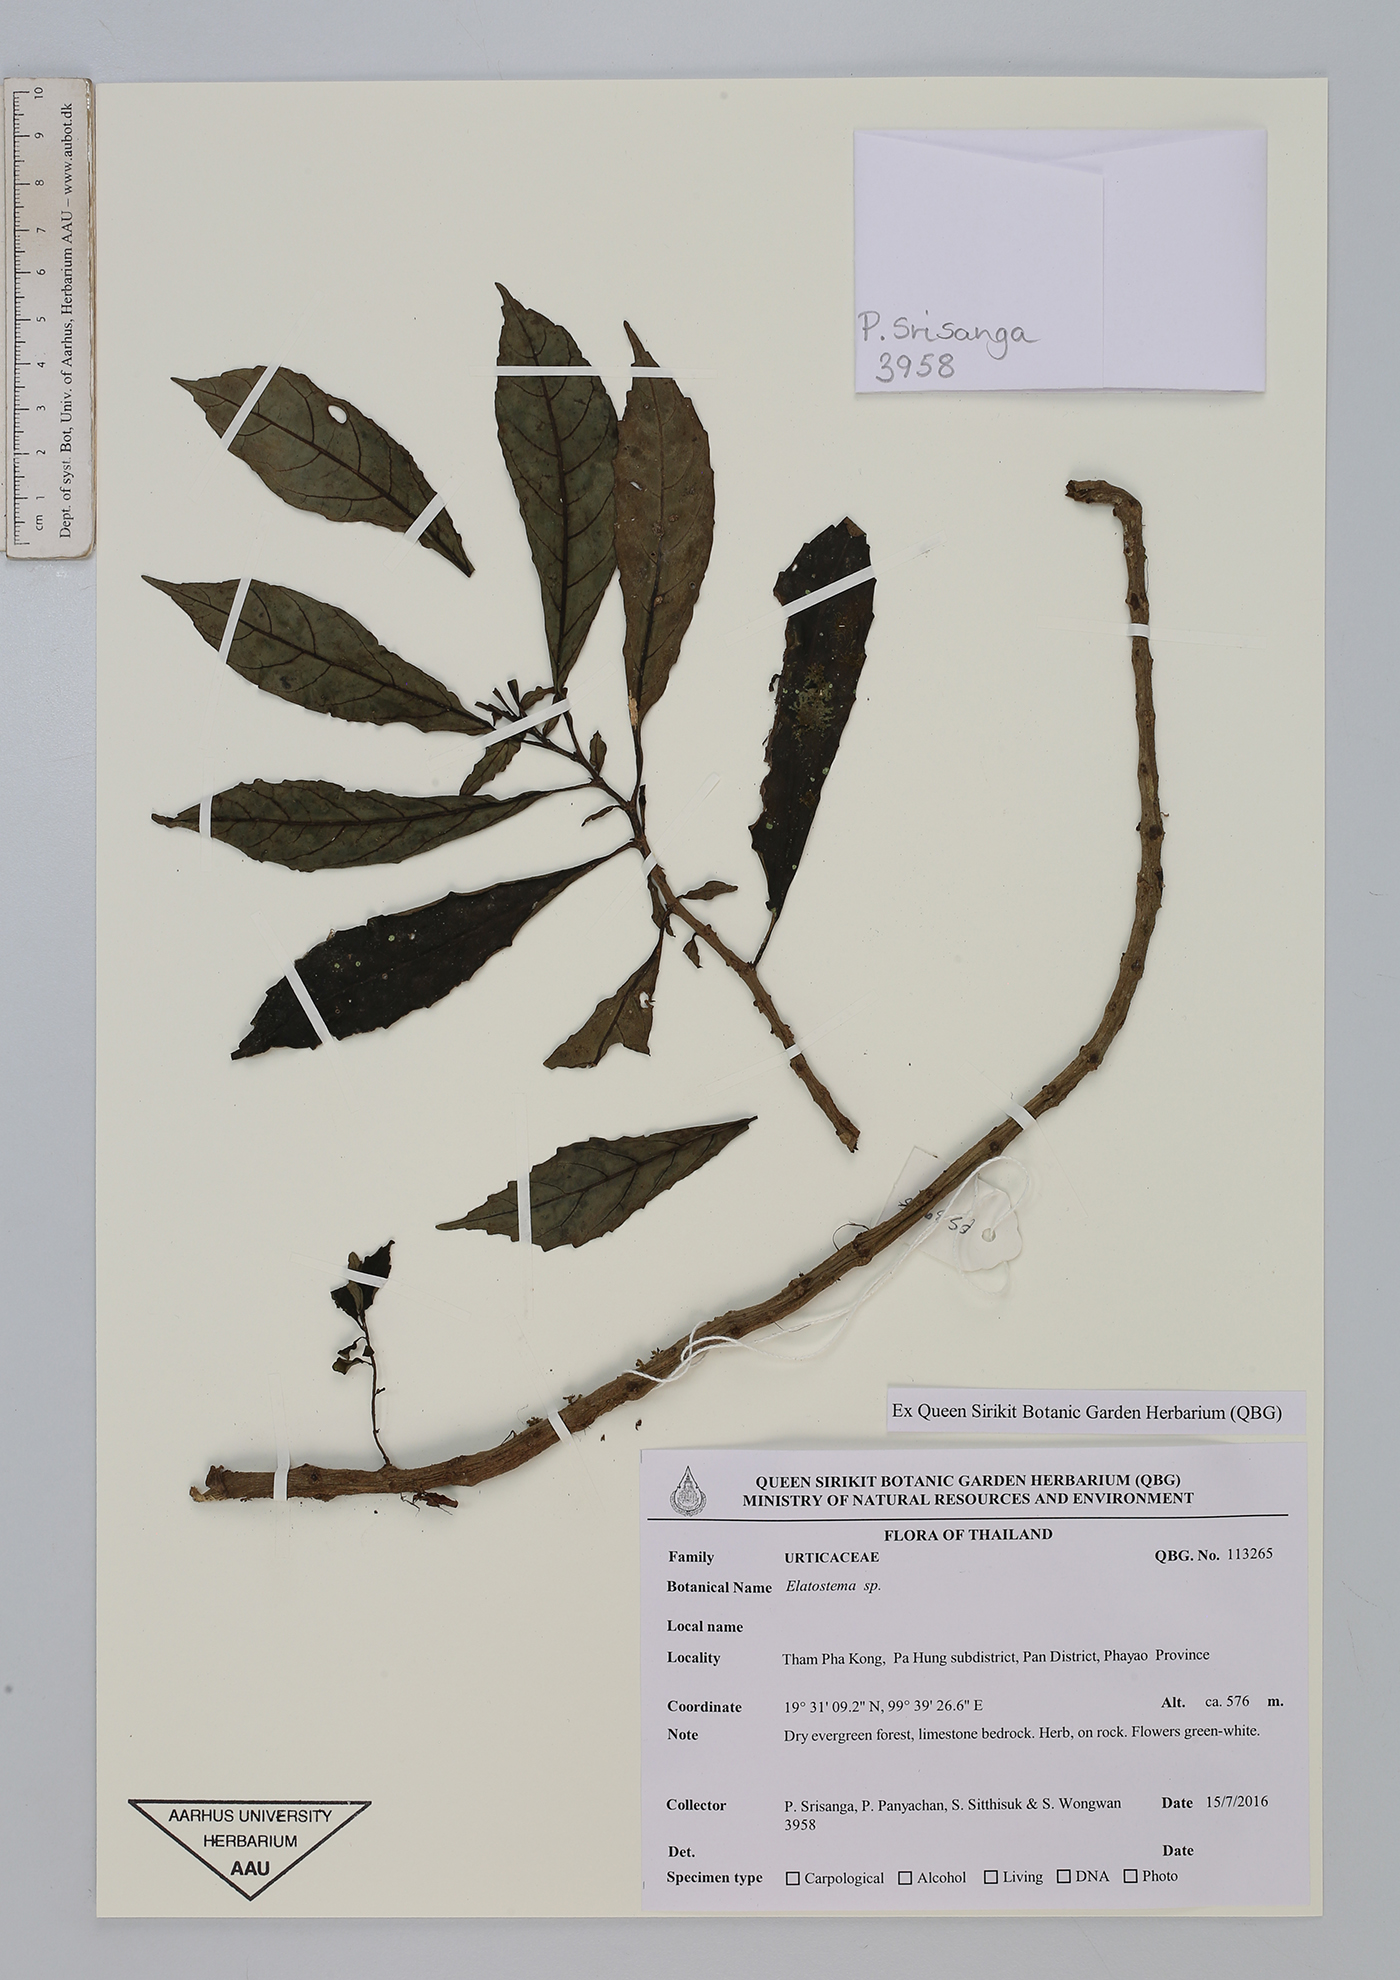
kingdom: Plantae
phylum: Tracheophyta
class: Magnoliopsida
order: Rosales
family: Urticaceae
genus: Elatostema
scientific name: Elatostema
